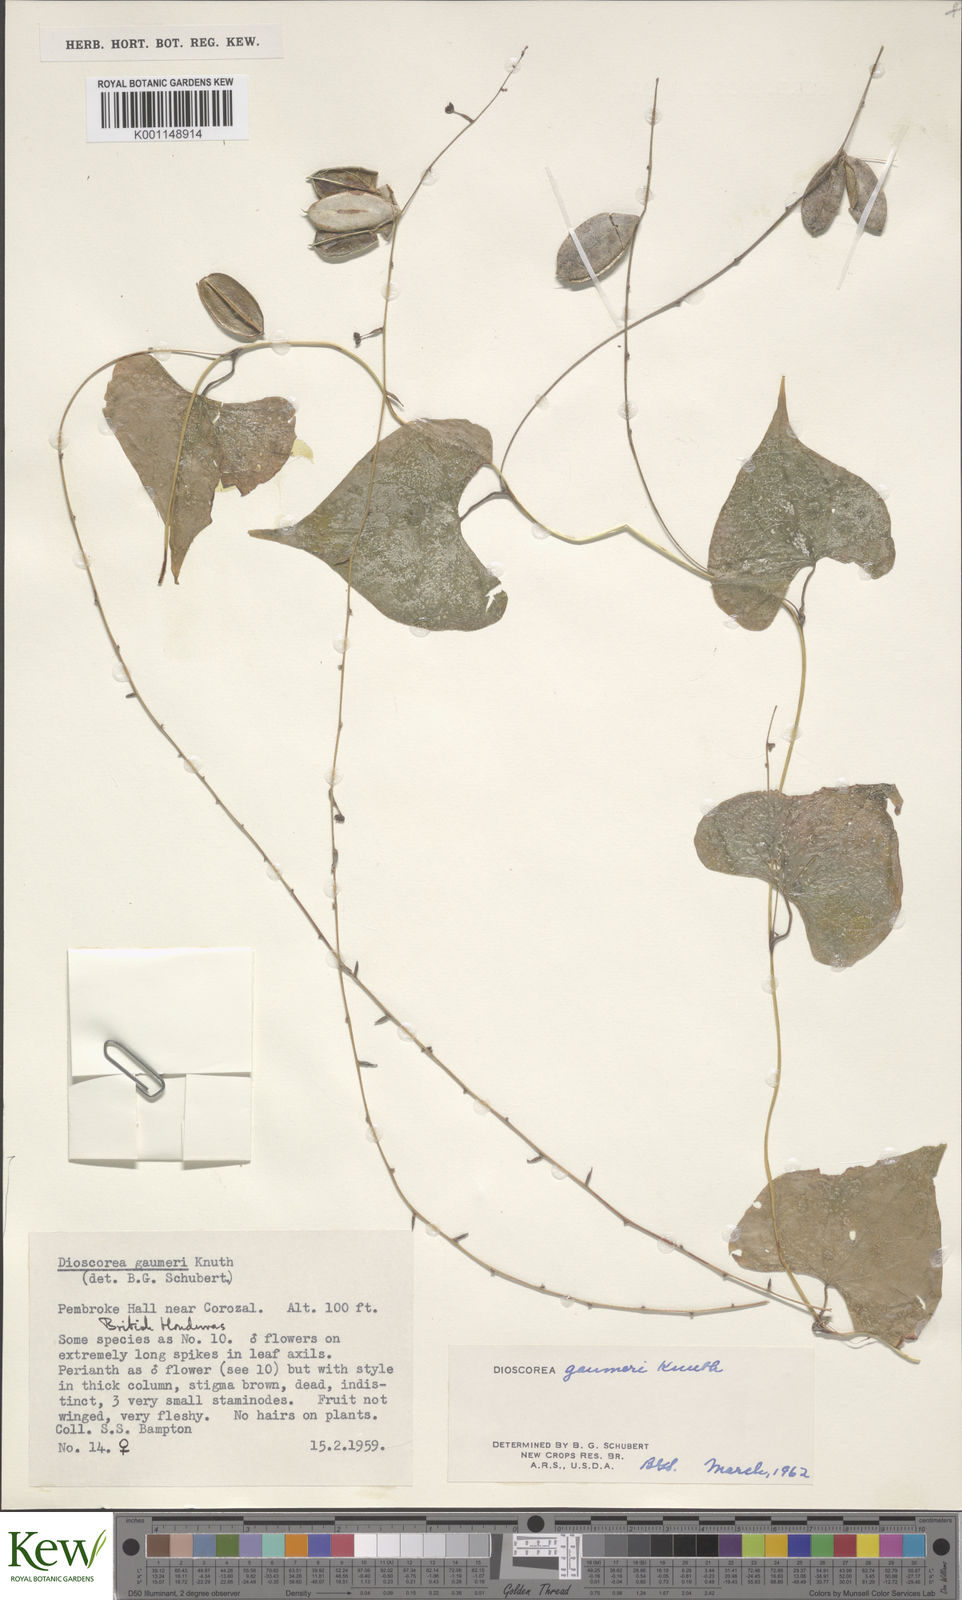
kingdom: Plantae
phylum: Tracheophyta
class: Liliopsida
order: Dioscoreales
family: Dioscoreaceae
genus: Dioscorea
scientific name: Dioscorea gaumeri
